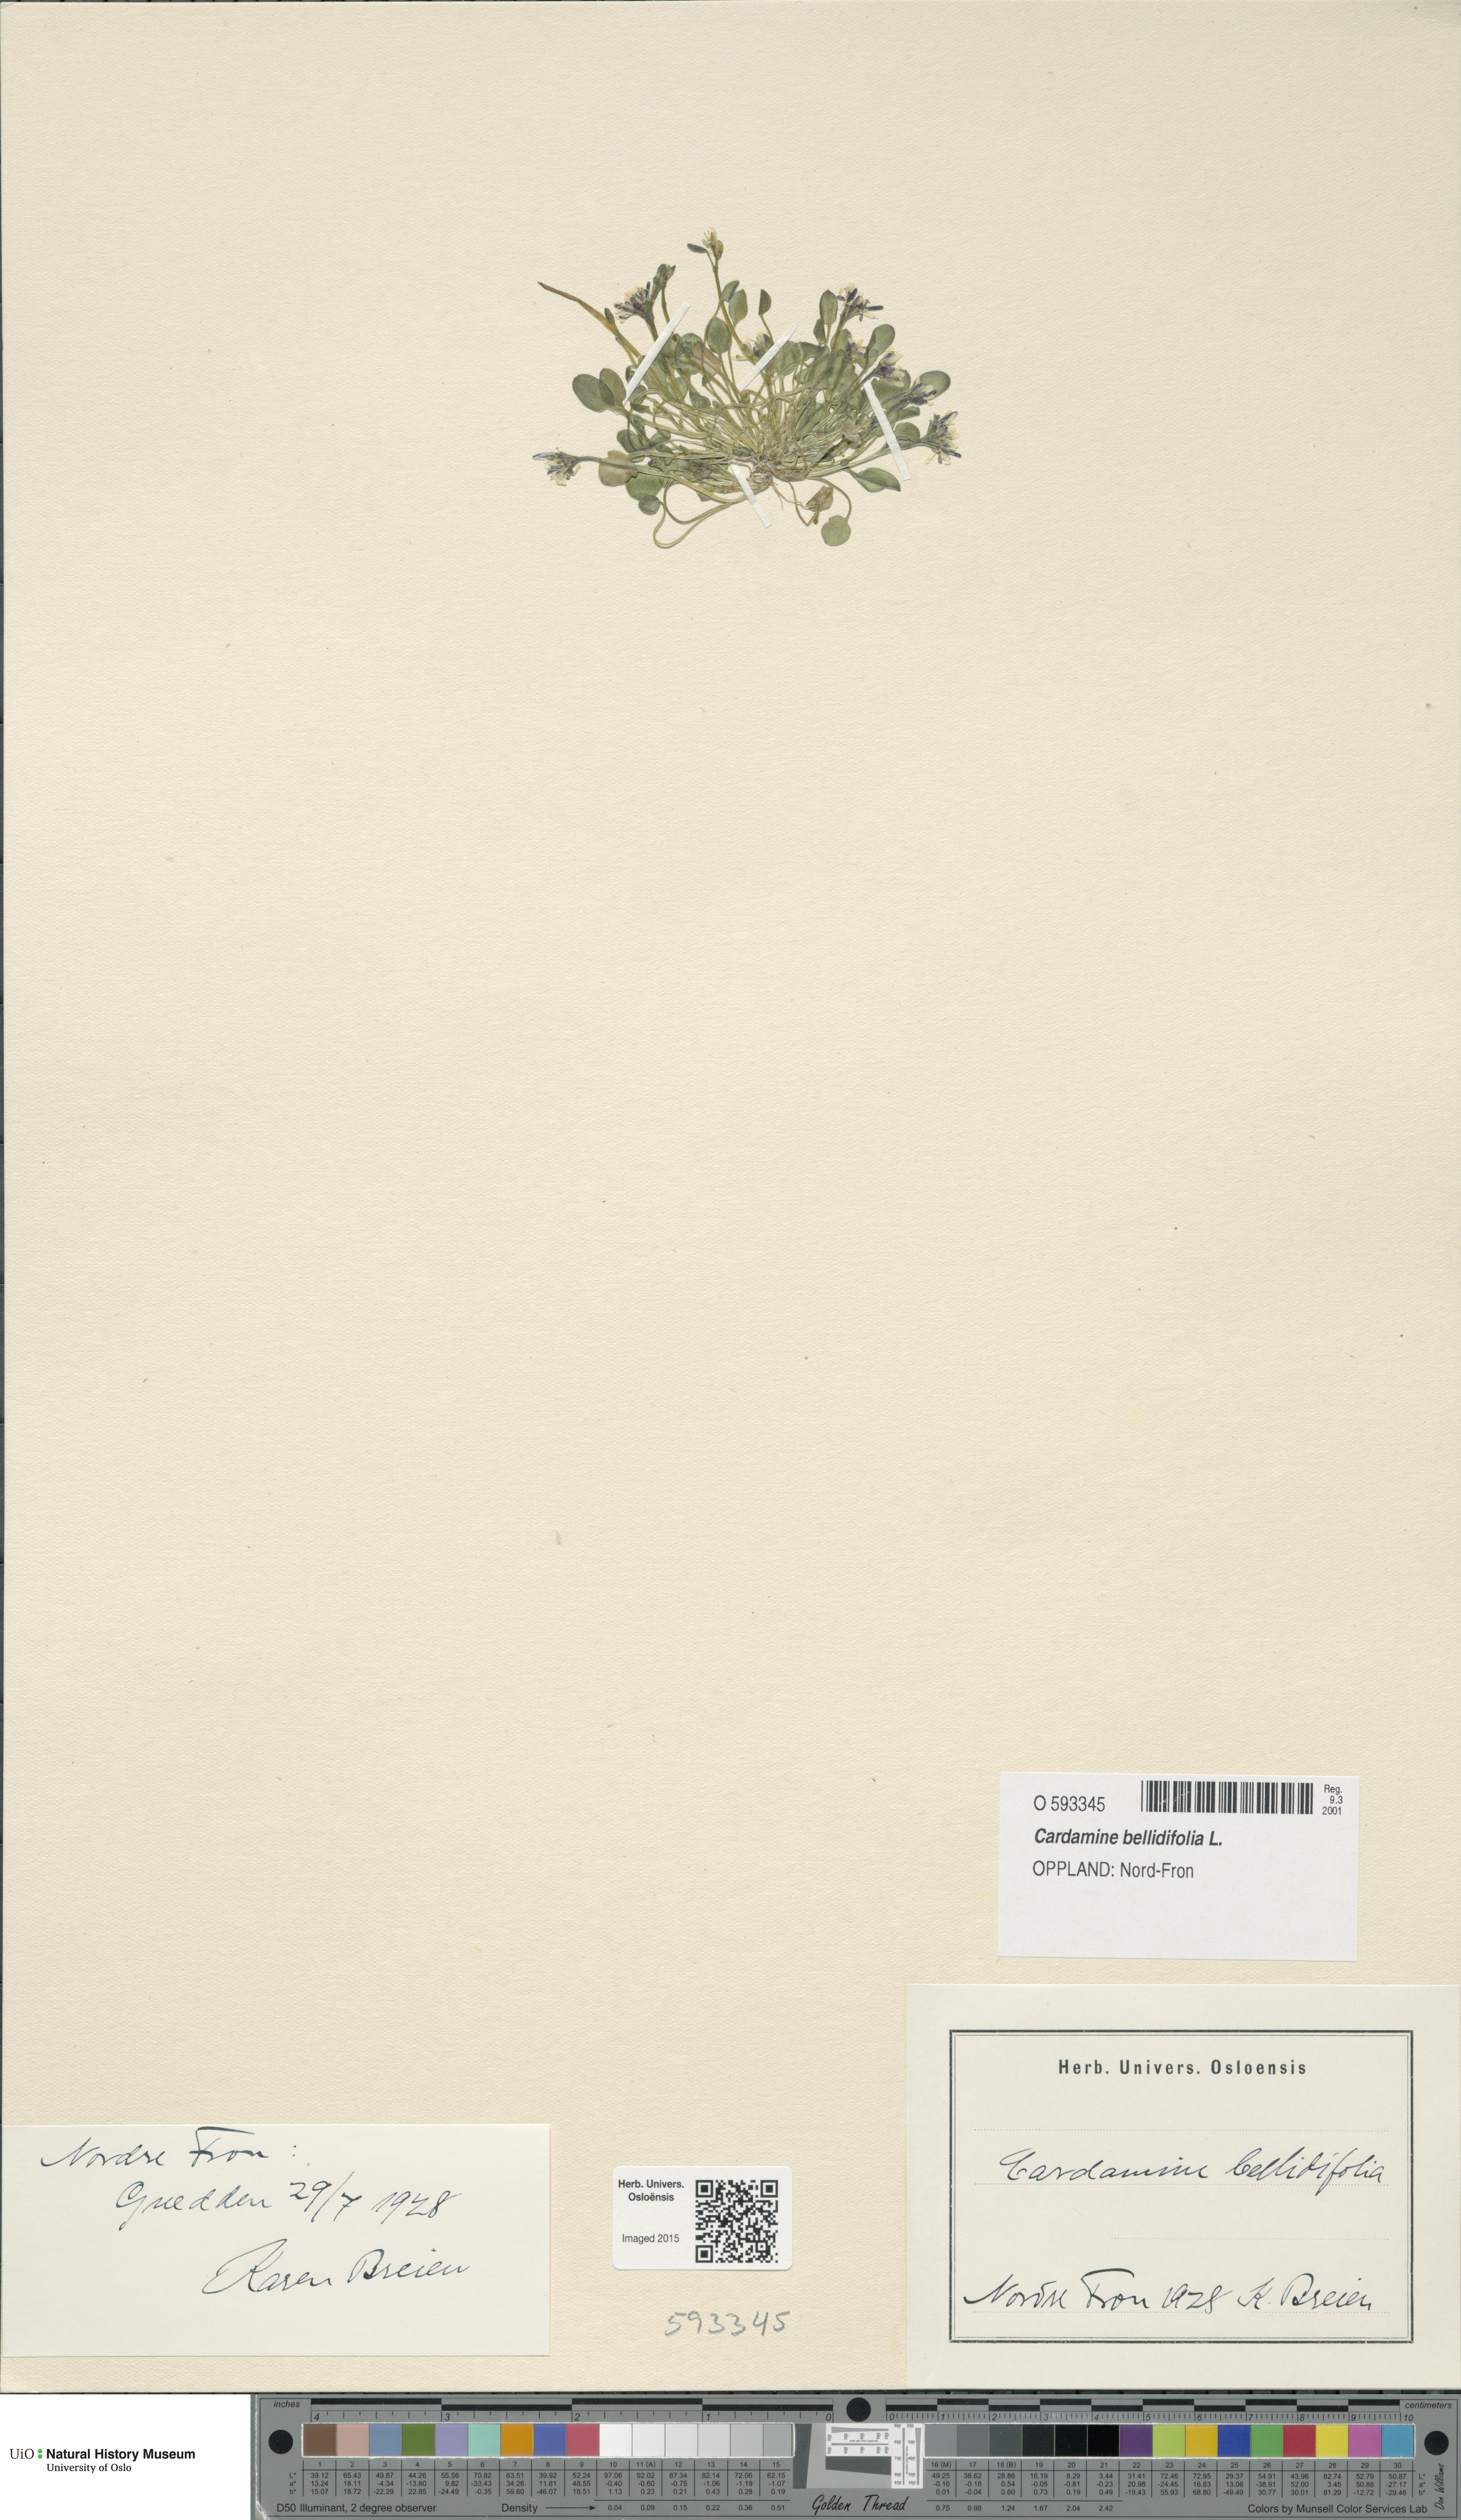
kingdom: Plantae
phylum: Tracheophyta
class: Magnoliopsida
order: Brassicales
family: Brassicaceae
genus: Cardamine
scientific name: Cardamine bellidifolia
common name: Alpine bittercress
